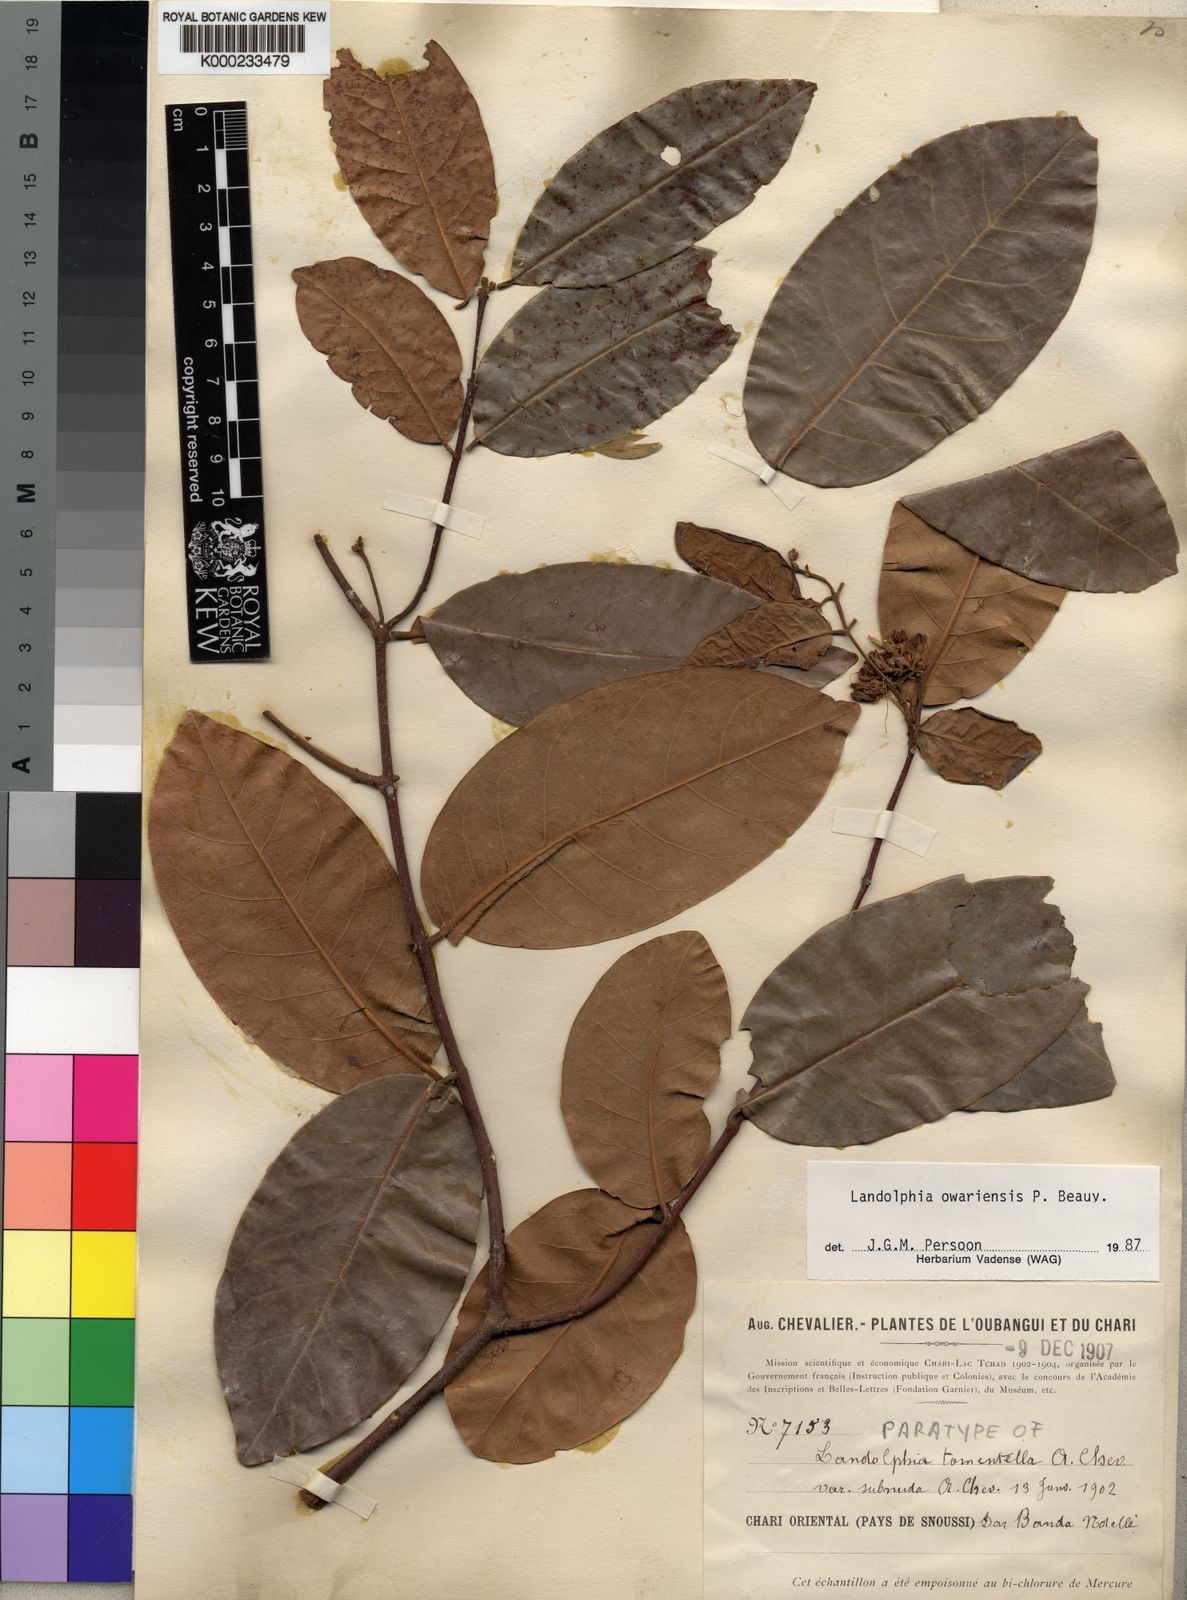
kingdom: Plantae
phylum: Tracheophyta
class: Magnoliopsida
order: Gentianales
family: Apocynaceae
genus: Landolphia
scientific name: Landolphia owariensis
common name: White-ball-rubber
